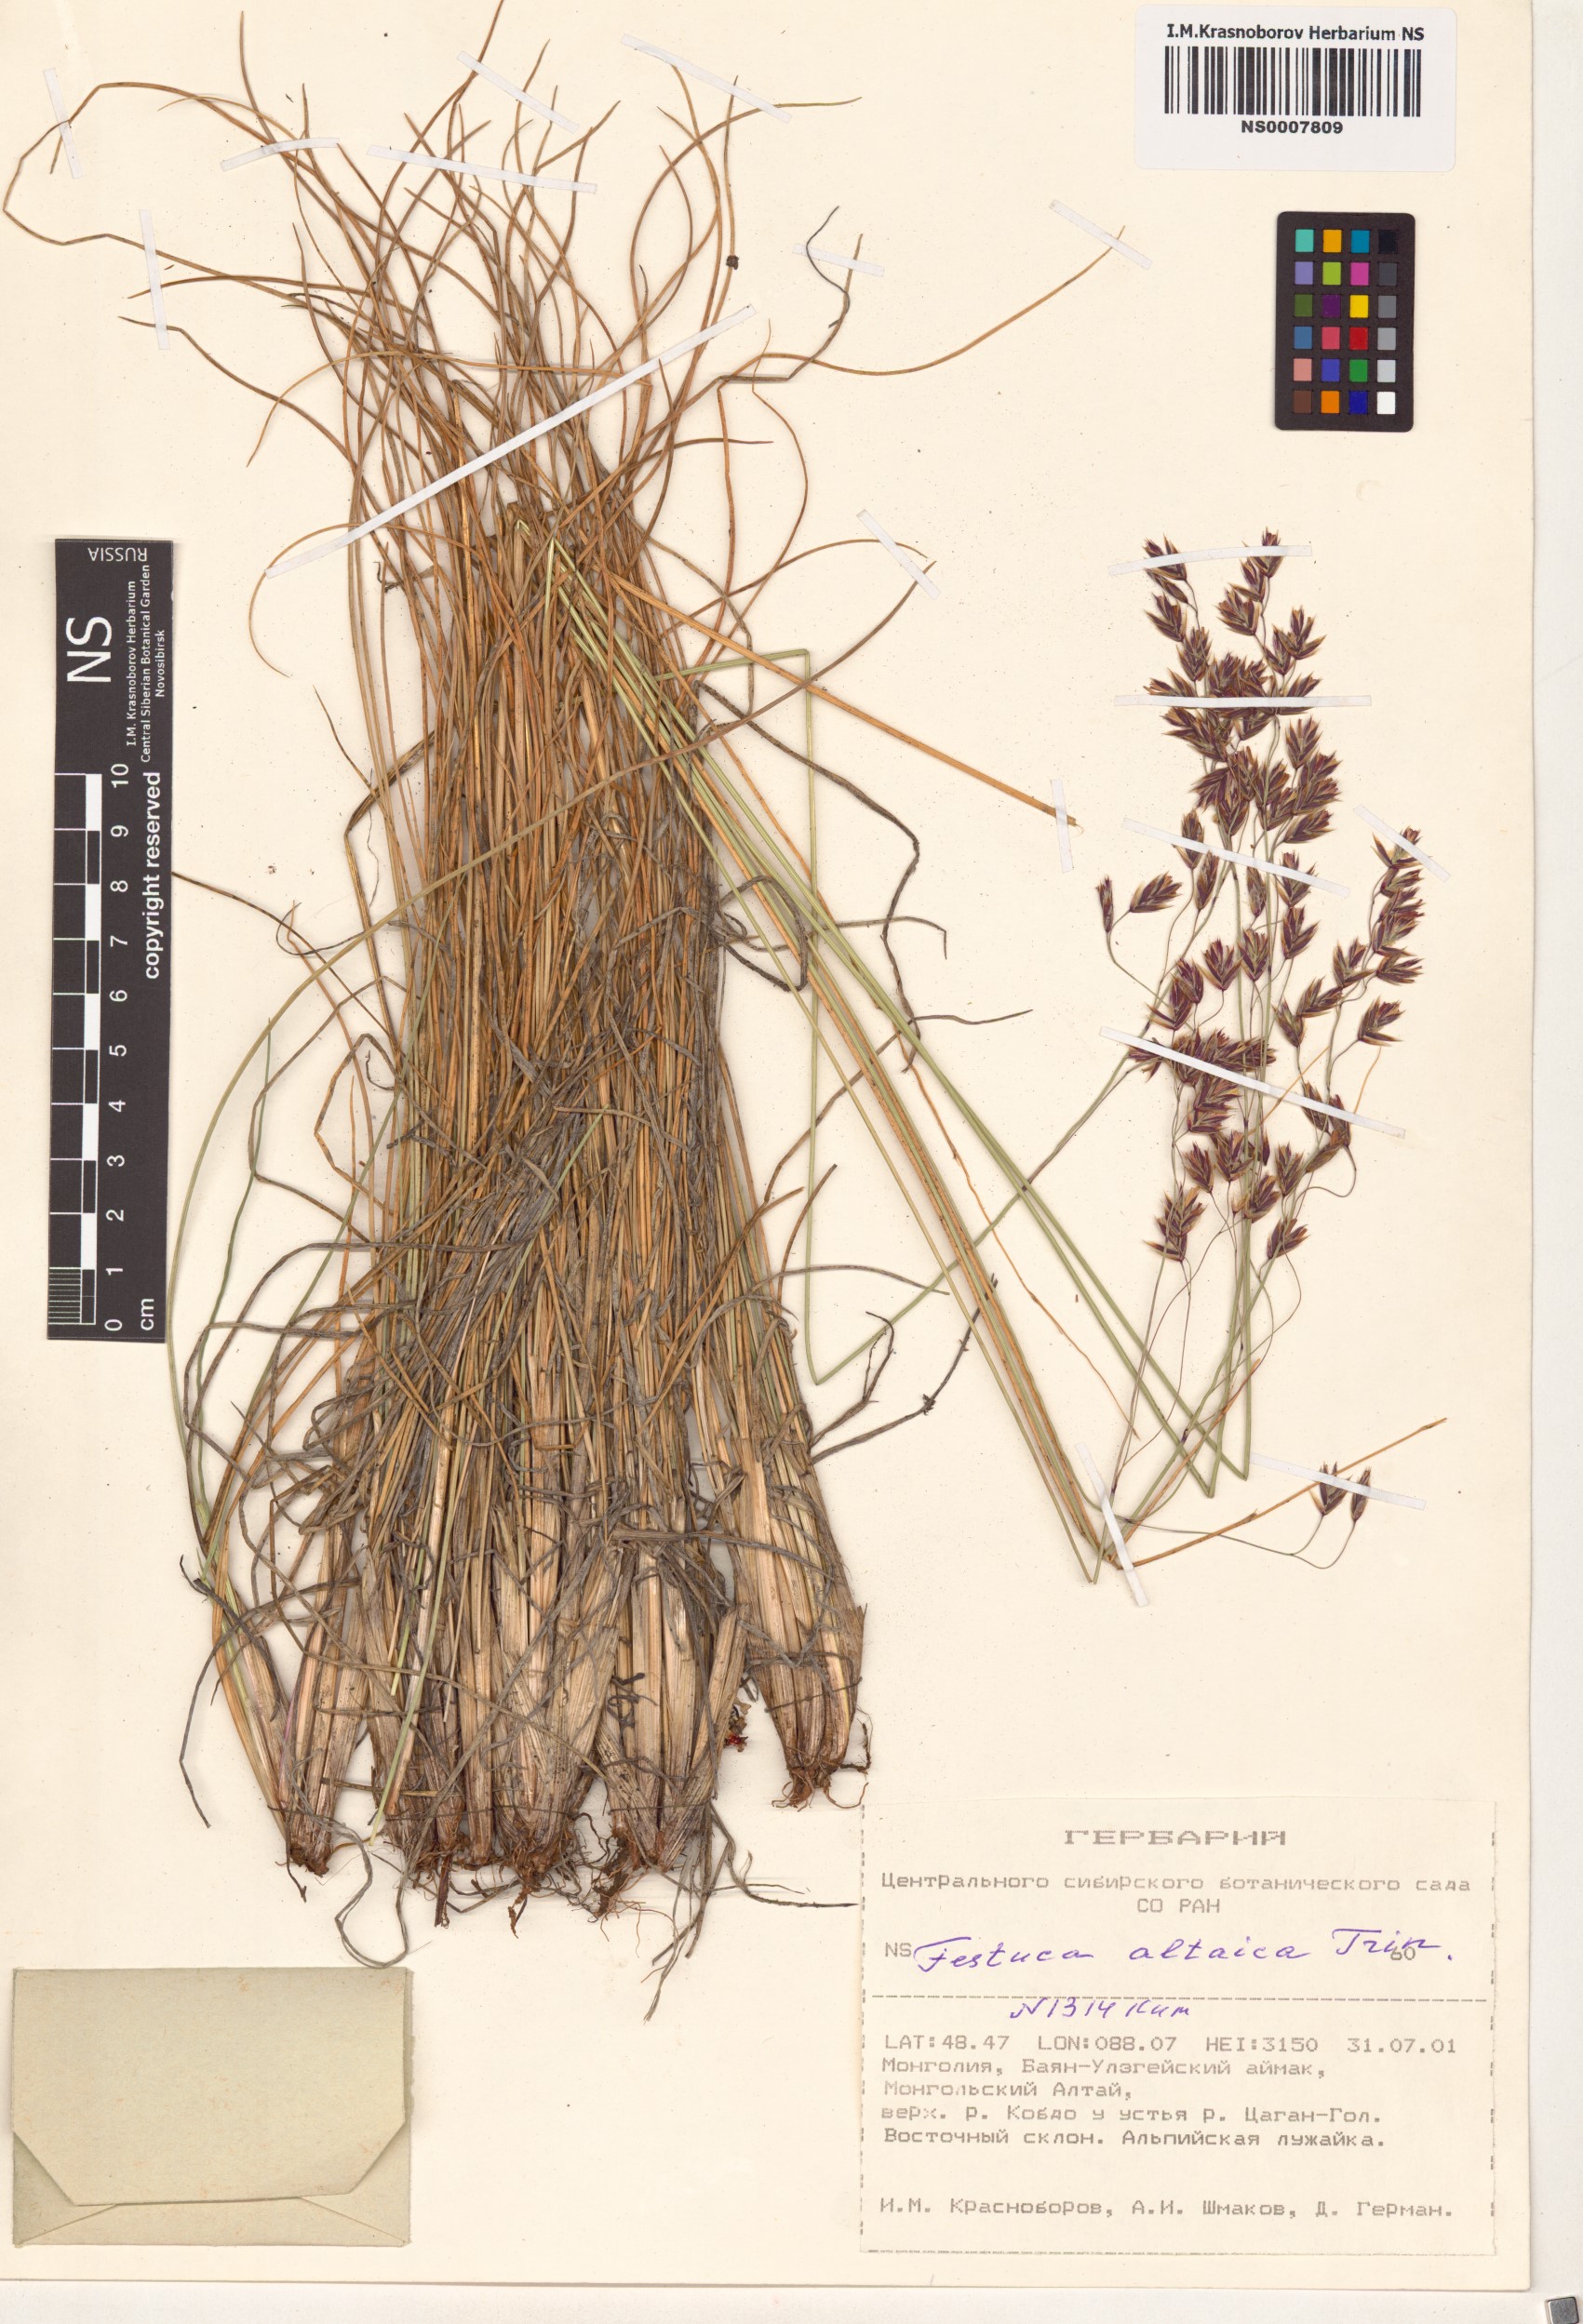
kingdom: Plantae
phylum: Tracheophyta
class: Liliopsida
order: Poales
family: Poaceae
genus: Festuca
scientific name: Festuca altaica
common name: Northern rough fescue
